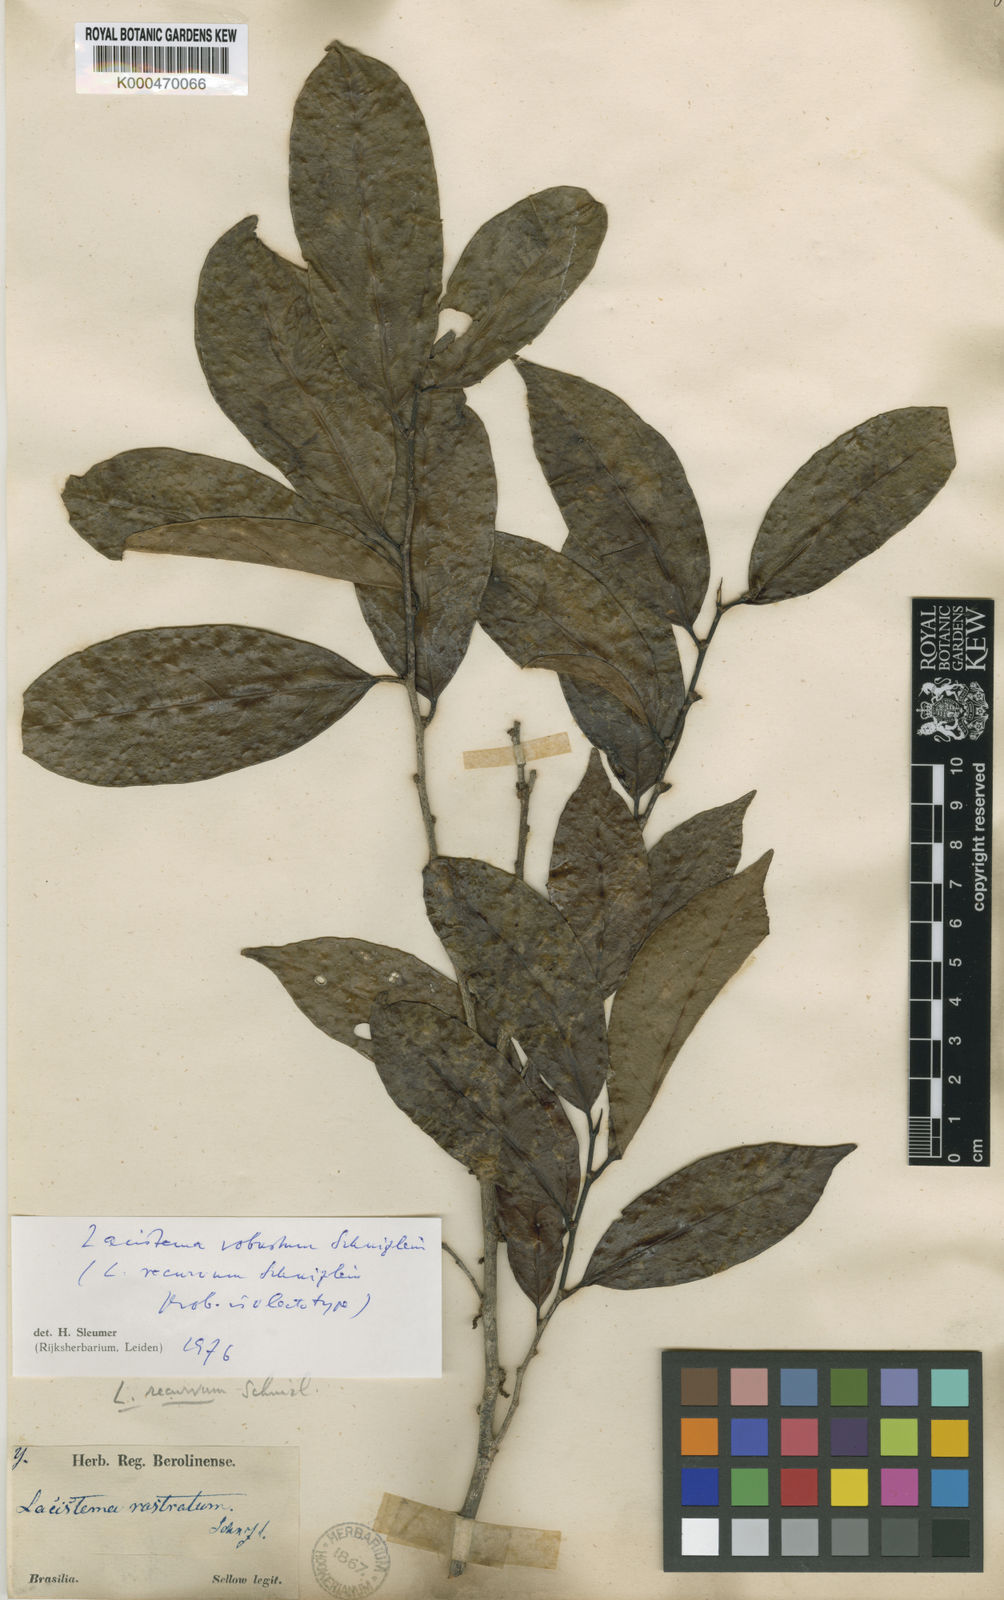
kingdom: Plantae
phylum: Tracheophyta
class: Magnoliopsida
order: Malpighiales
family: Lacistemataceae
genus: Lacistema
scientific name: Lacistema robustum
